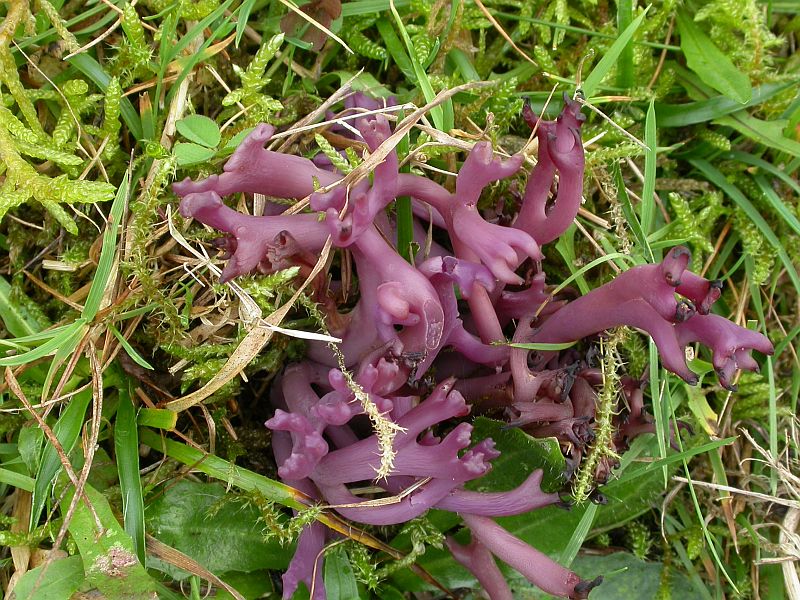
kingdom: Fungi
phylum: Basidiomycota
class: Agaricomycetes
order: Agaricales
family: Clavariaceae
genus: Clavaria
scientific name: Clavaria zollingeri
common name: purpur-køllesvamp
